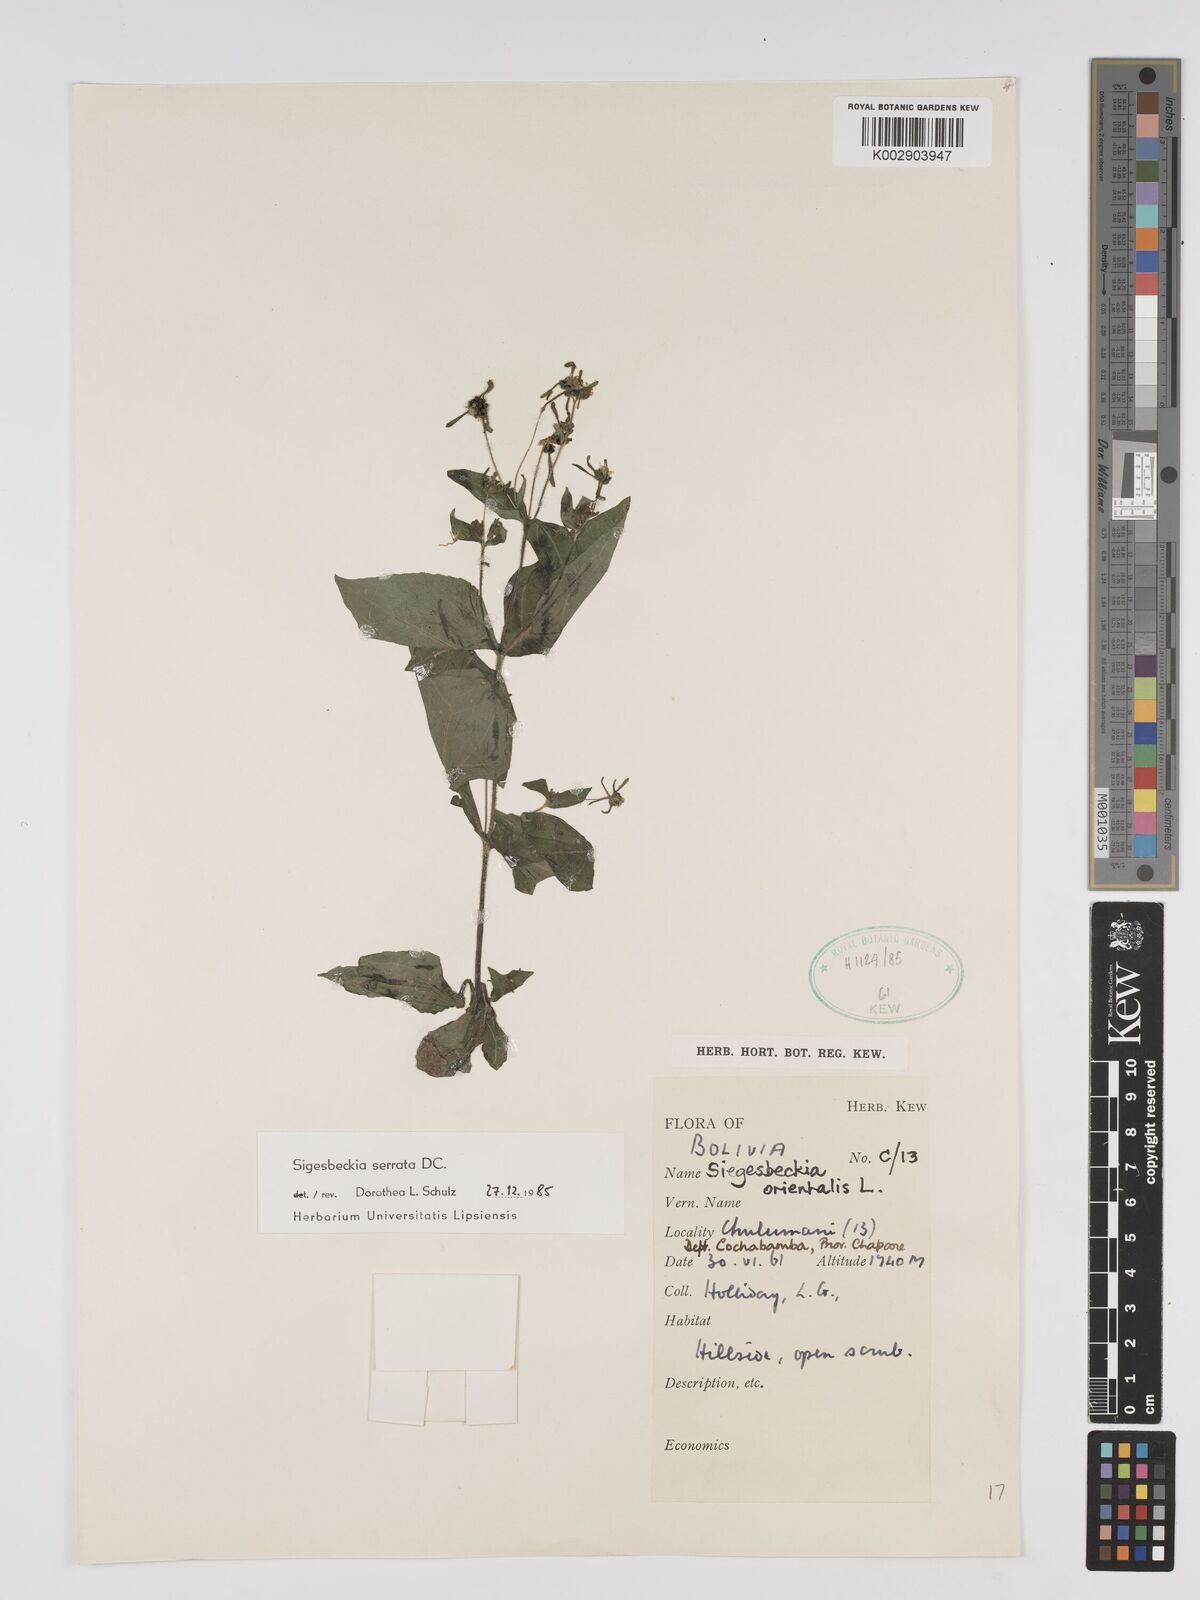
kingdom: Plantae
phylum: Tracheophyta
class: Magnoliopsida
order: Asterales
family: Asteraceae
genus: Sigesbeckia
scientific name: Sigesbeckia jorullensis
